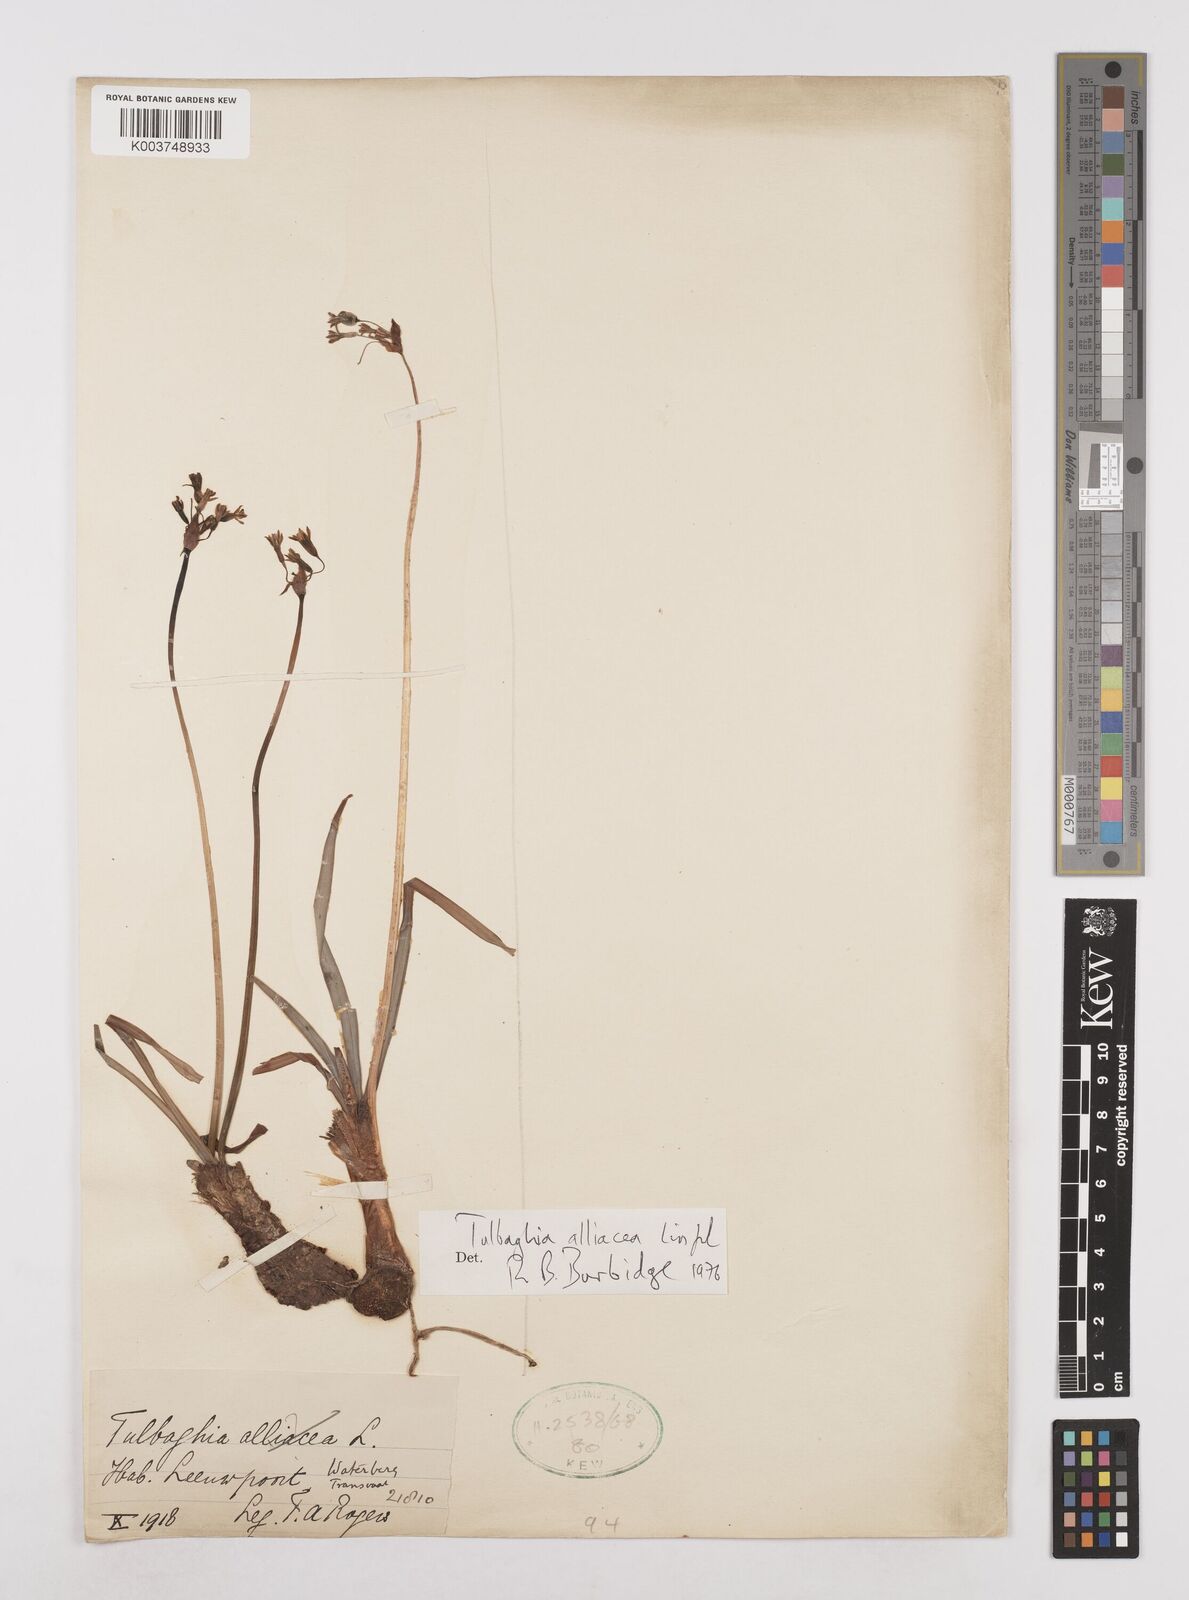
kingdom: Plantae
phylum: Tracheophyta
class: Liliopsida
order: Asparagales
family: Amaryllidaceae
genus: Tulbaghia
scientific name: Tulbaghia alliacea
